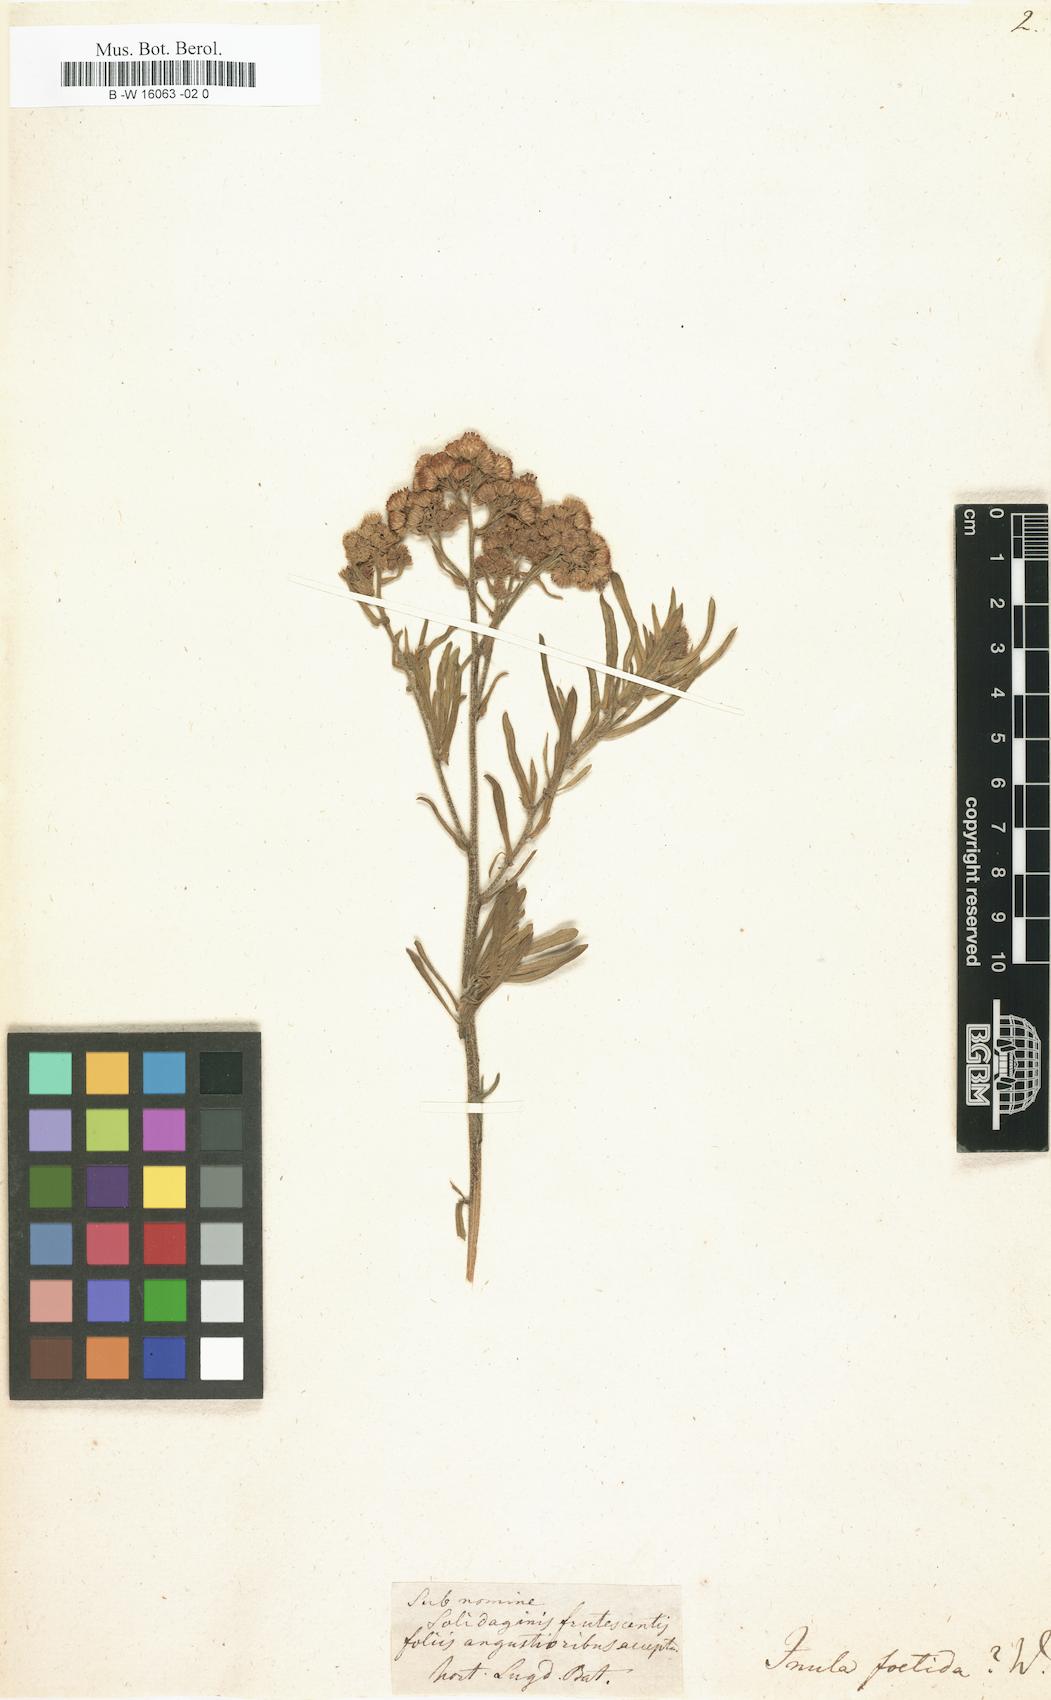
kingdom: Plantae
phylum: Tracheophyta
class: Magnoliopsida
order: Asterales
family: Asteraceae
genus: Nidorella
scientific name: Nidorella foetida
